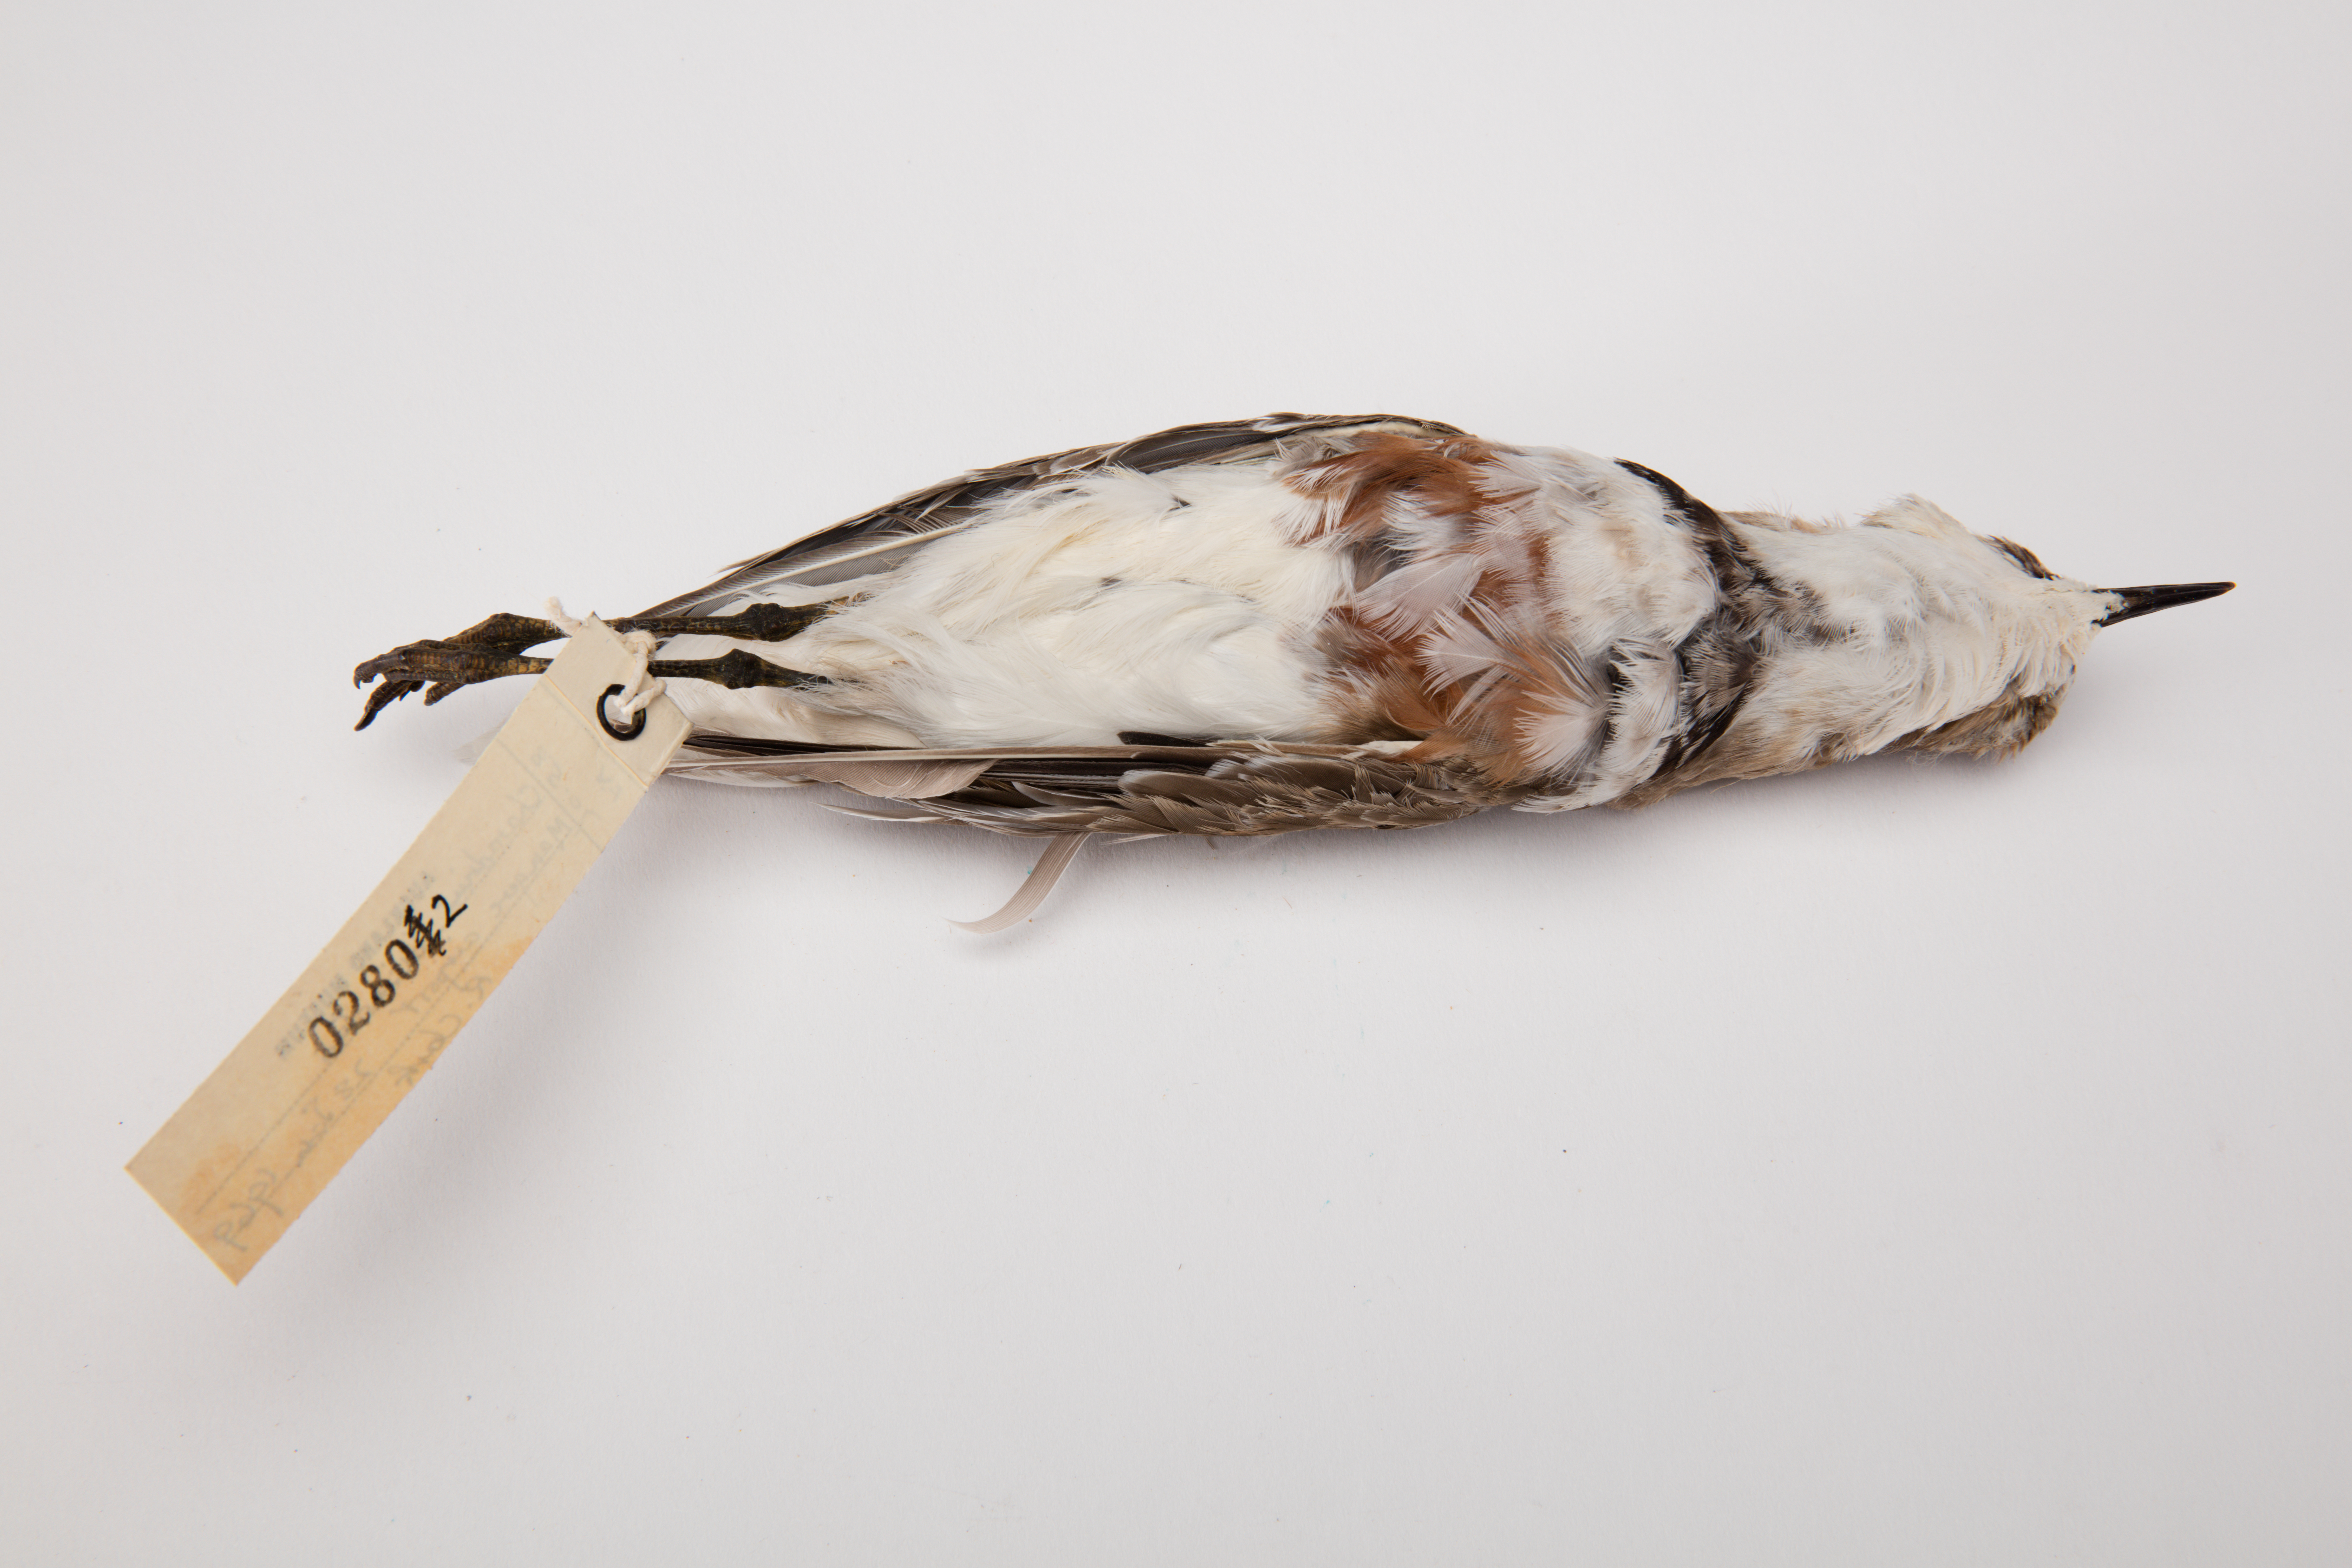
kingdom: Animalia
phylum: Chordata
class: Aves
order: Charadriiformes
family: Charadriidae
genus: Charadrius
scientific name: Charadrius bicinctus
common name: Double-banded plover
